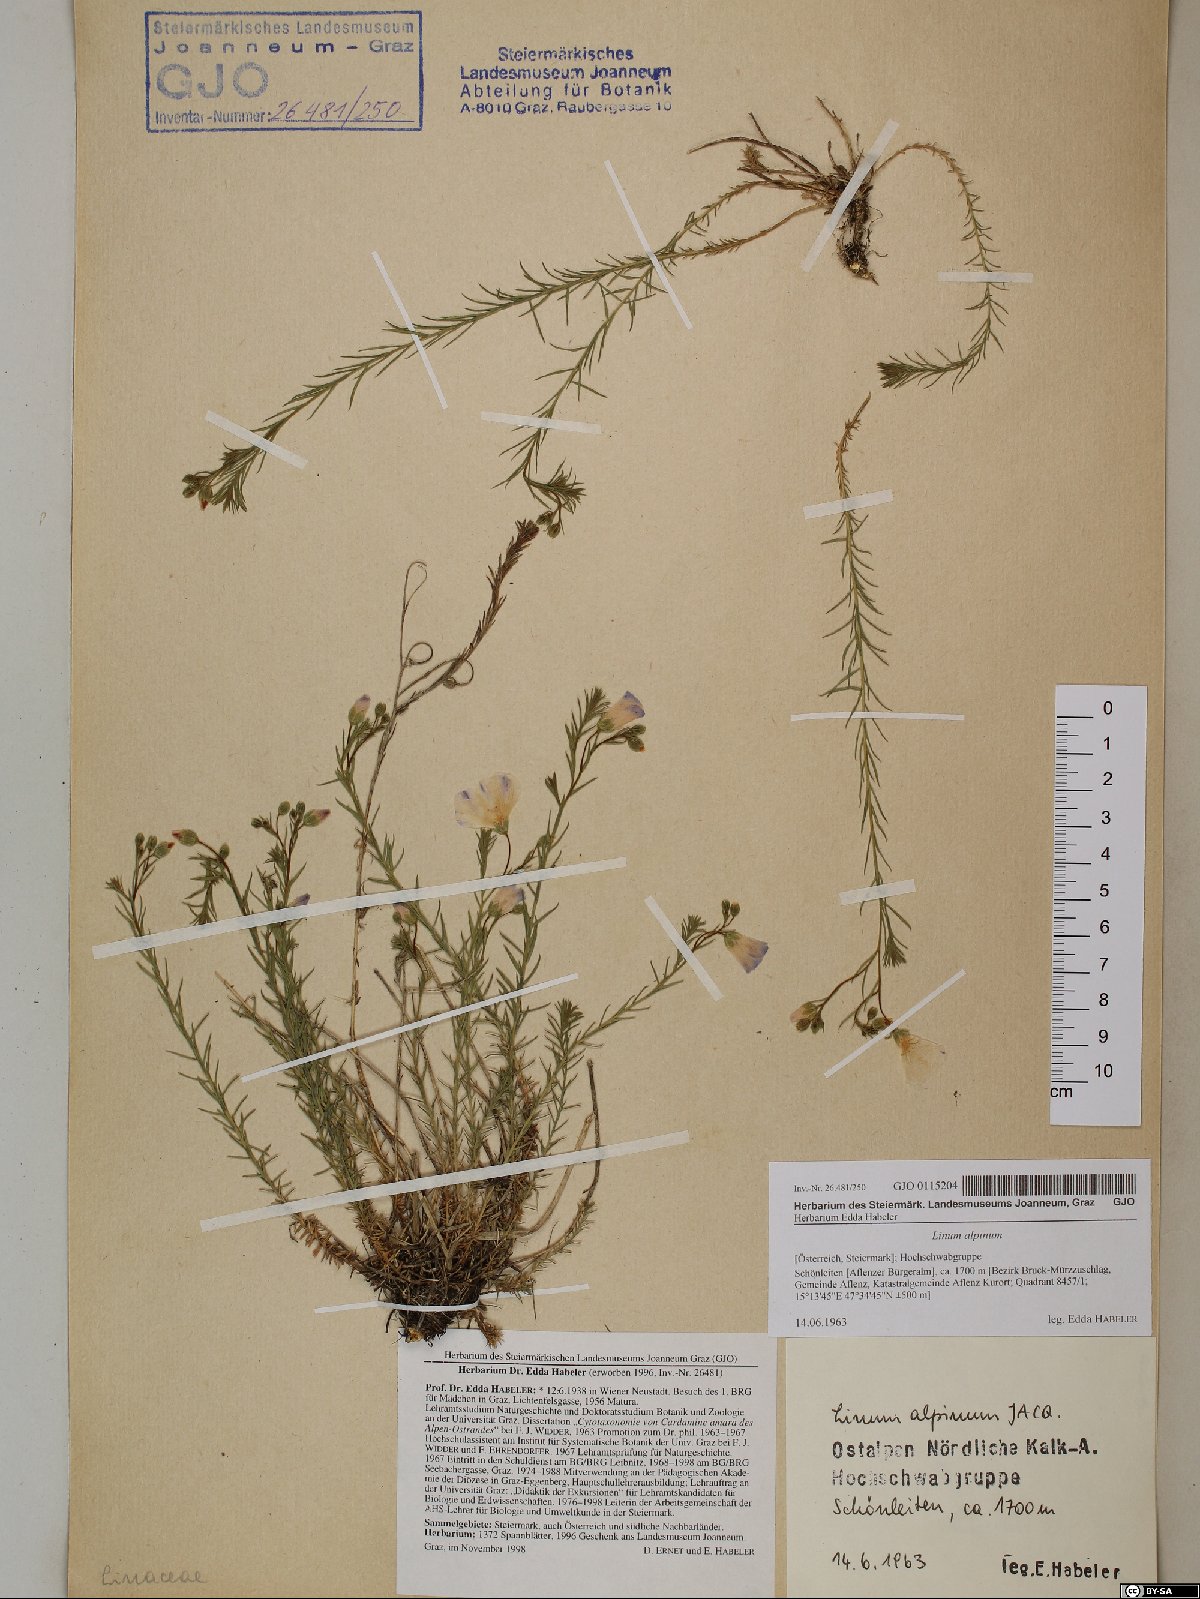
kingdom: Plantae
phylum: Tracheophyta
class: Magnoliopsida
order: Malpighiales
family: Linaceae
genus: Linum
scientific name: Linum alpinum
